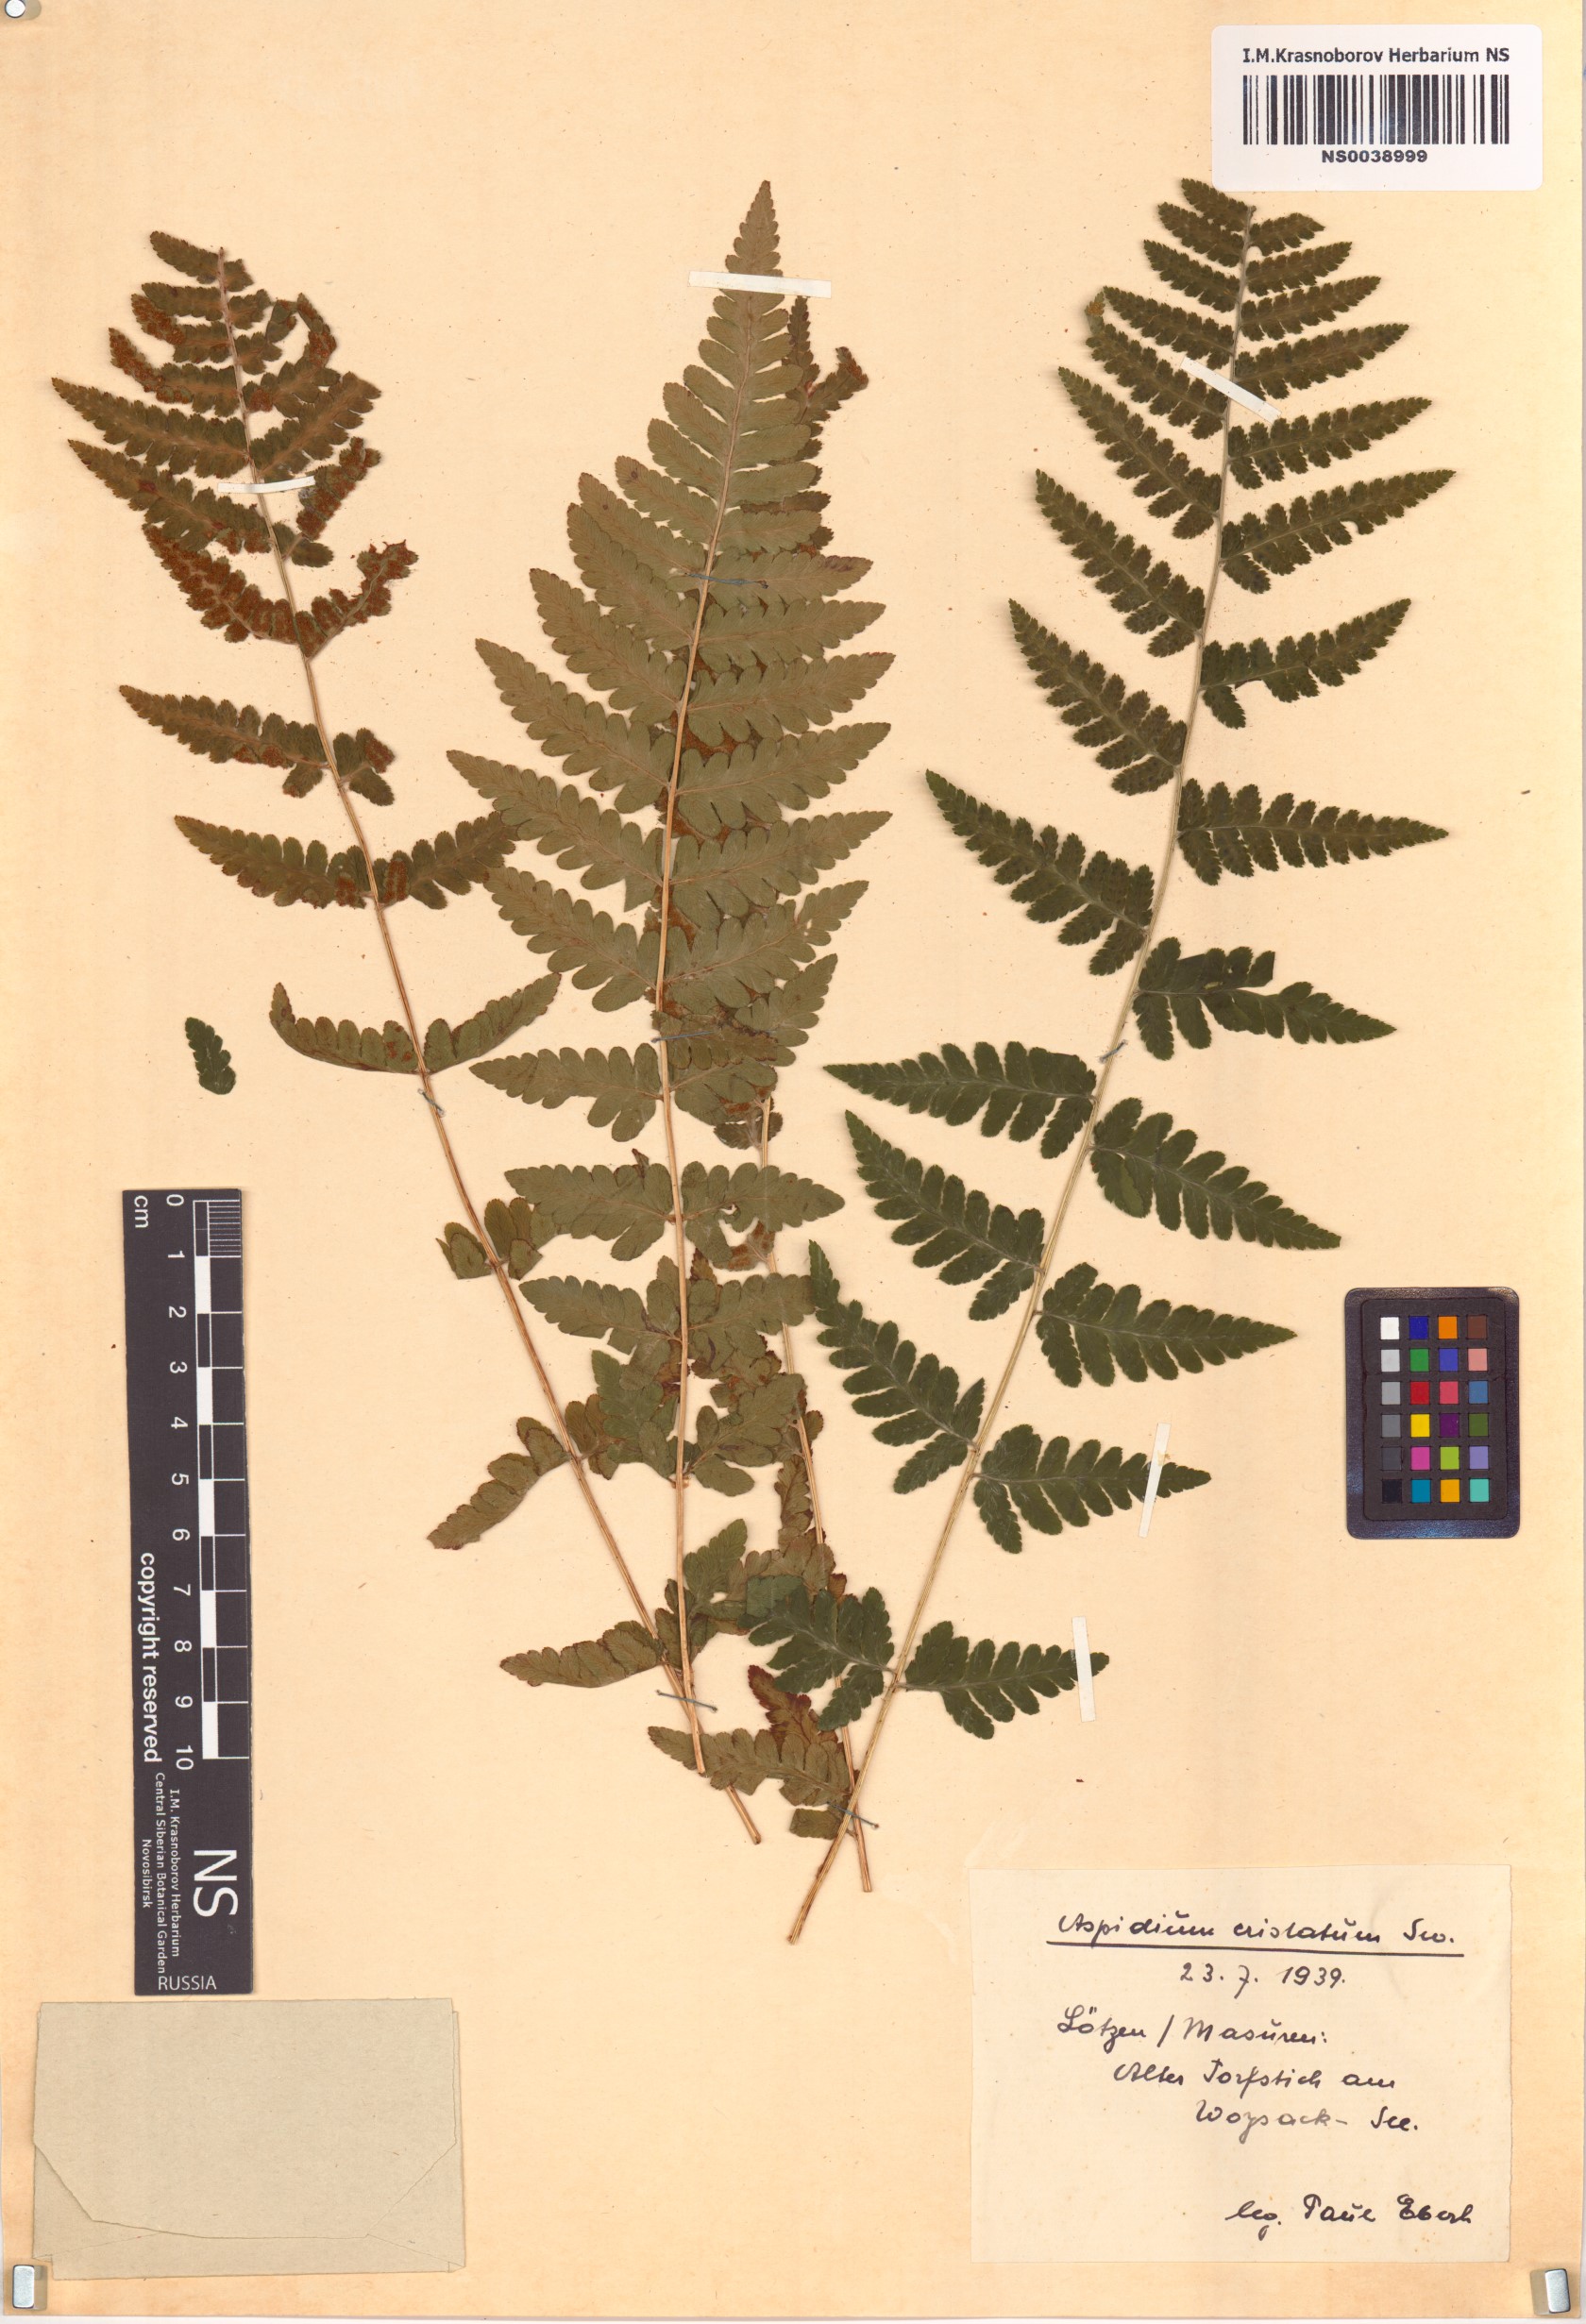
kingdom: Plantae
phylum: Tracheophyta
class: Polypodiopsida
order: Polypodiales
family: Dryopteridaceae
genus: Dryopteris
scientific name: Dryopteris cristata
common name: Crested wood fern
